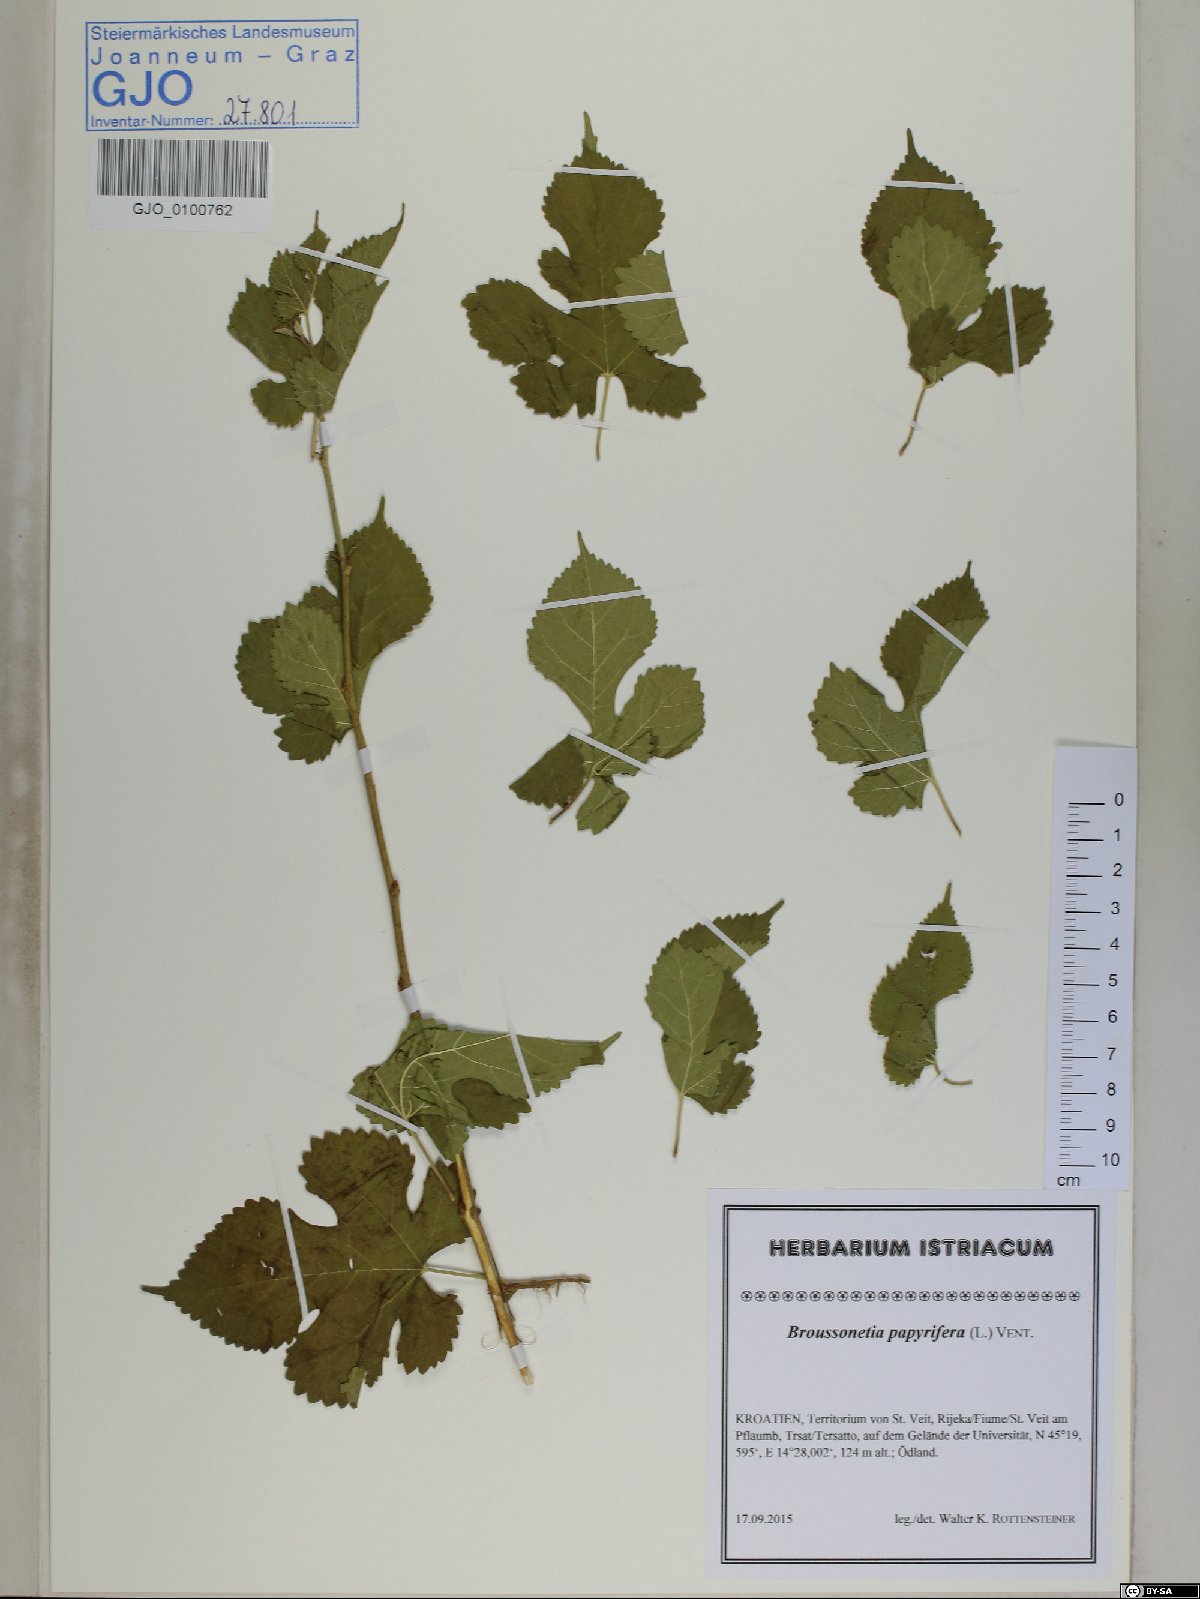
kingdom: Plantae
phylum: Tracheophyta
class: Magnoliopsida
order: Rosales
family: Moraceae
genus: Broussonetia
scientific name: Broussonetia papyrifera
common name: Paper mulberry
